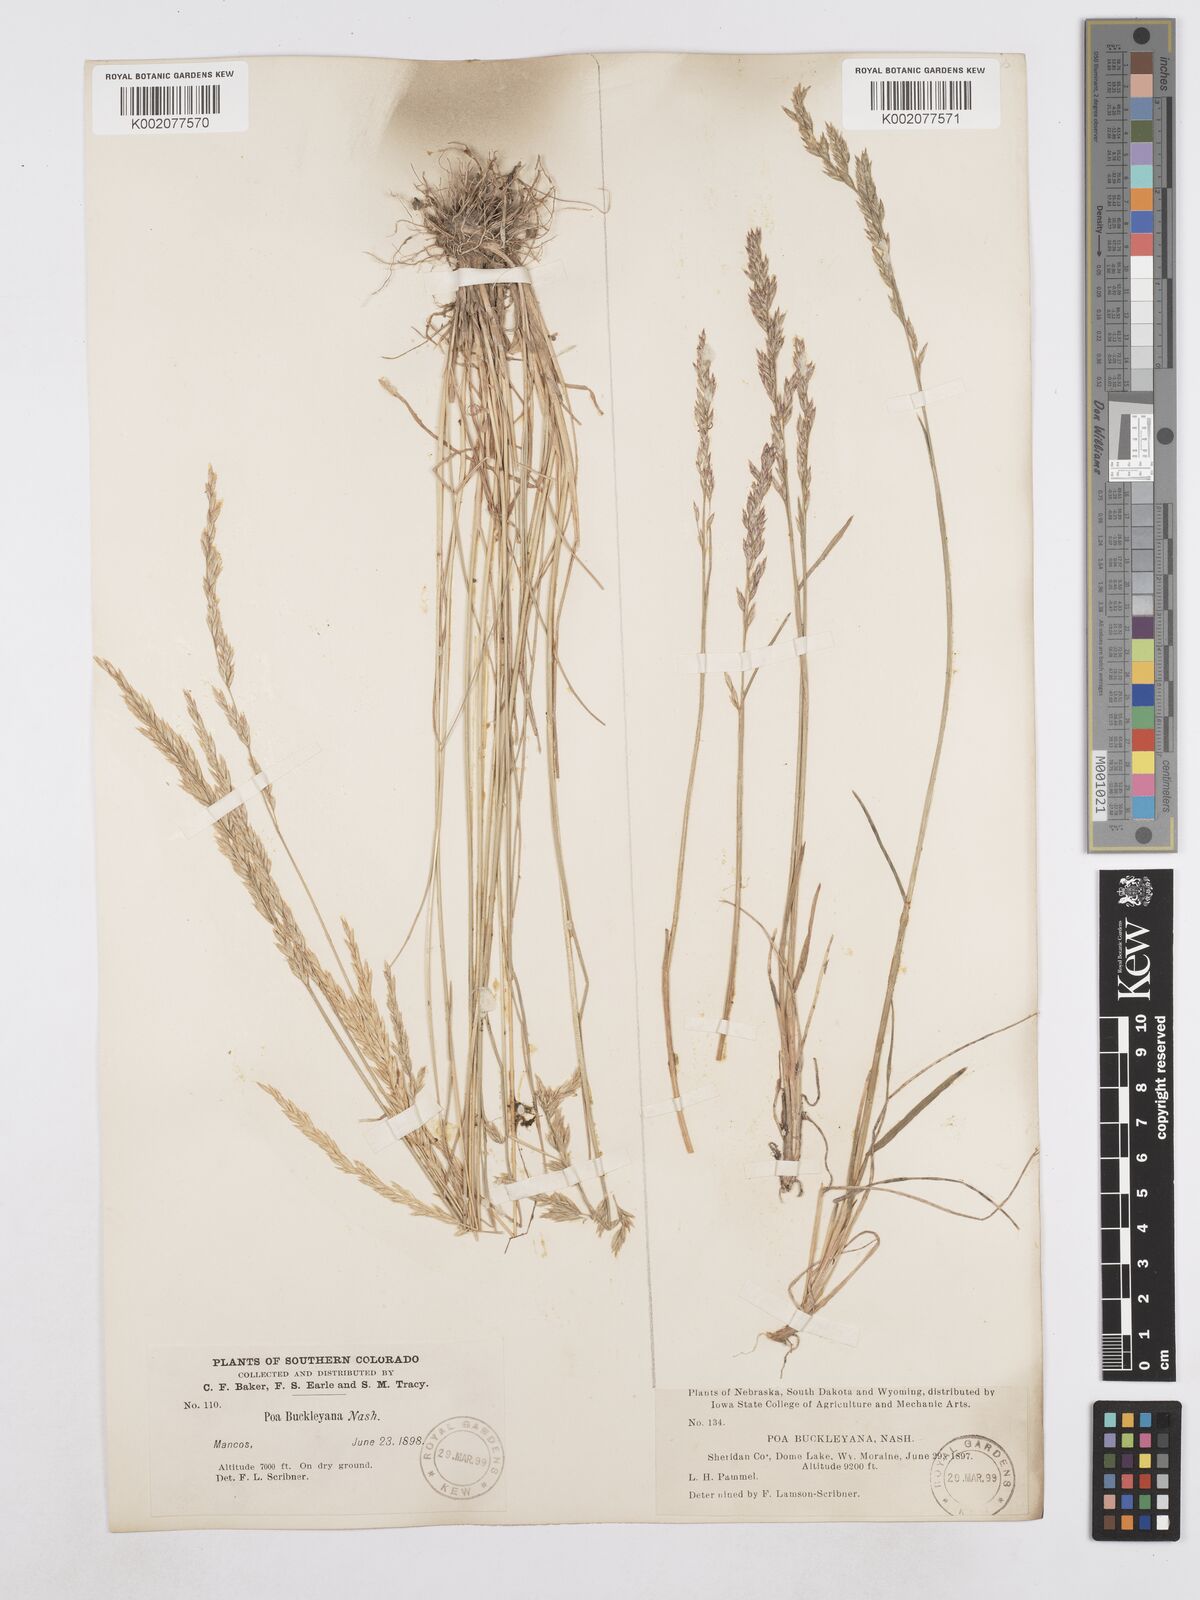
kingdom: Plantae
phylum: Tracheophyta
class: Liliopsida
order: Poales
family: Poaceae
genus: Poa
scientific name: Poa secunda
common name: Sandberg bluegrass
